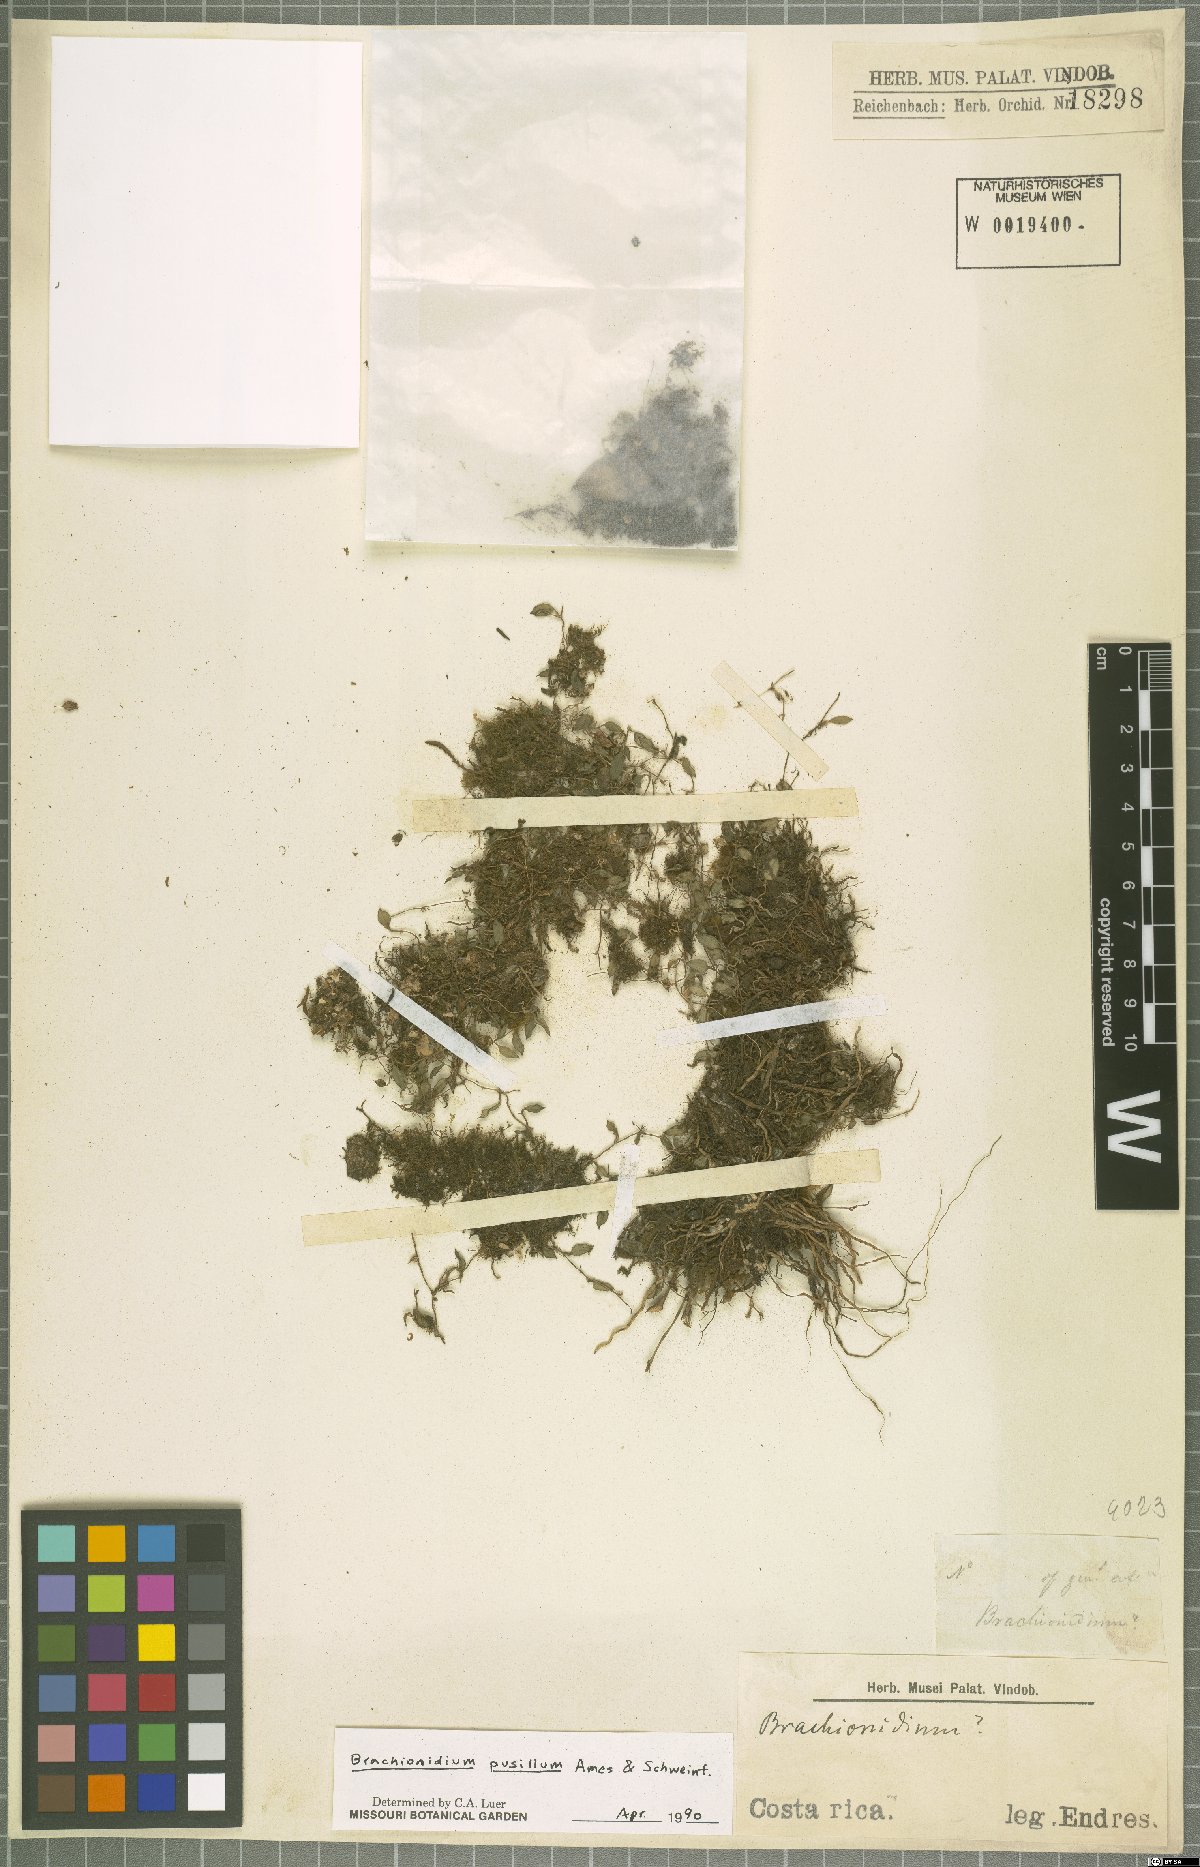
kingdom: Plantae
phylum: Tracheophyta
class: Liliopsida
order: Asparagales
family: Orchidaceae
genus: Brachionidium
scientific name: Brachionidium pusillum
